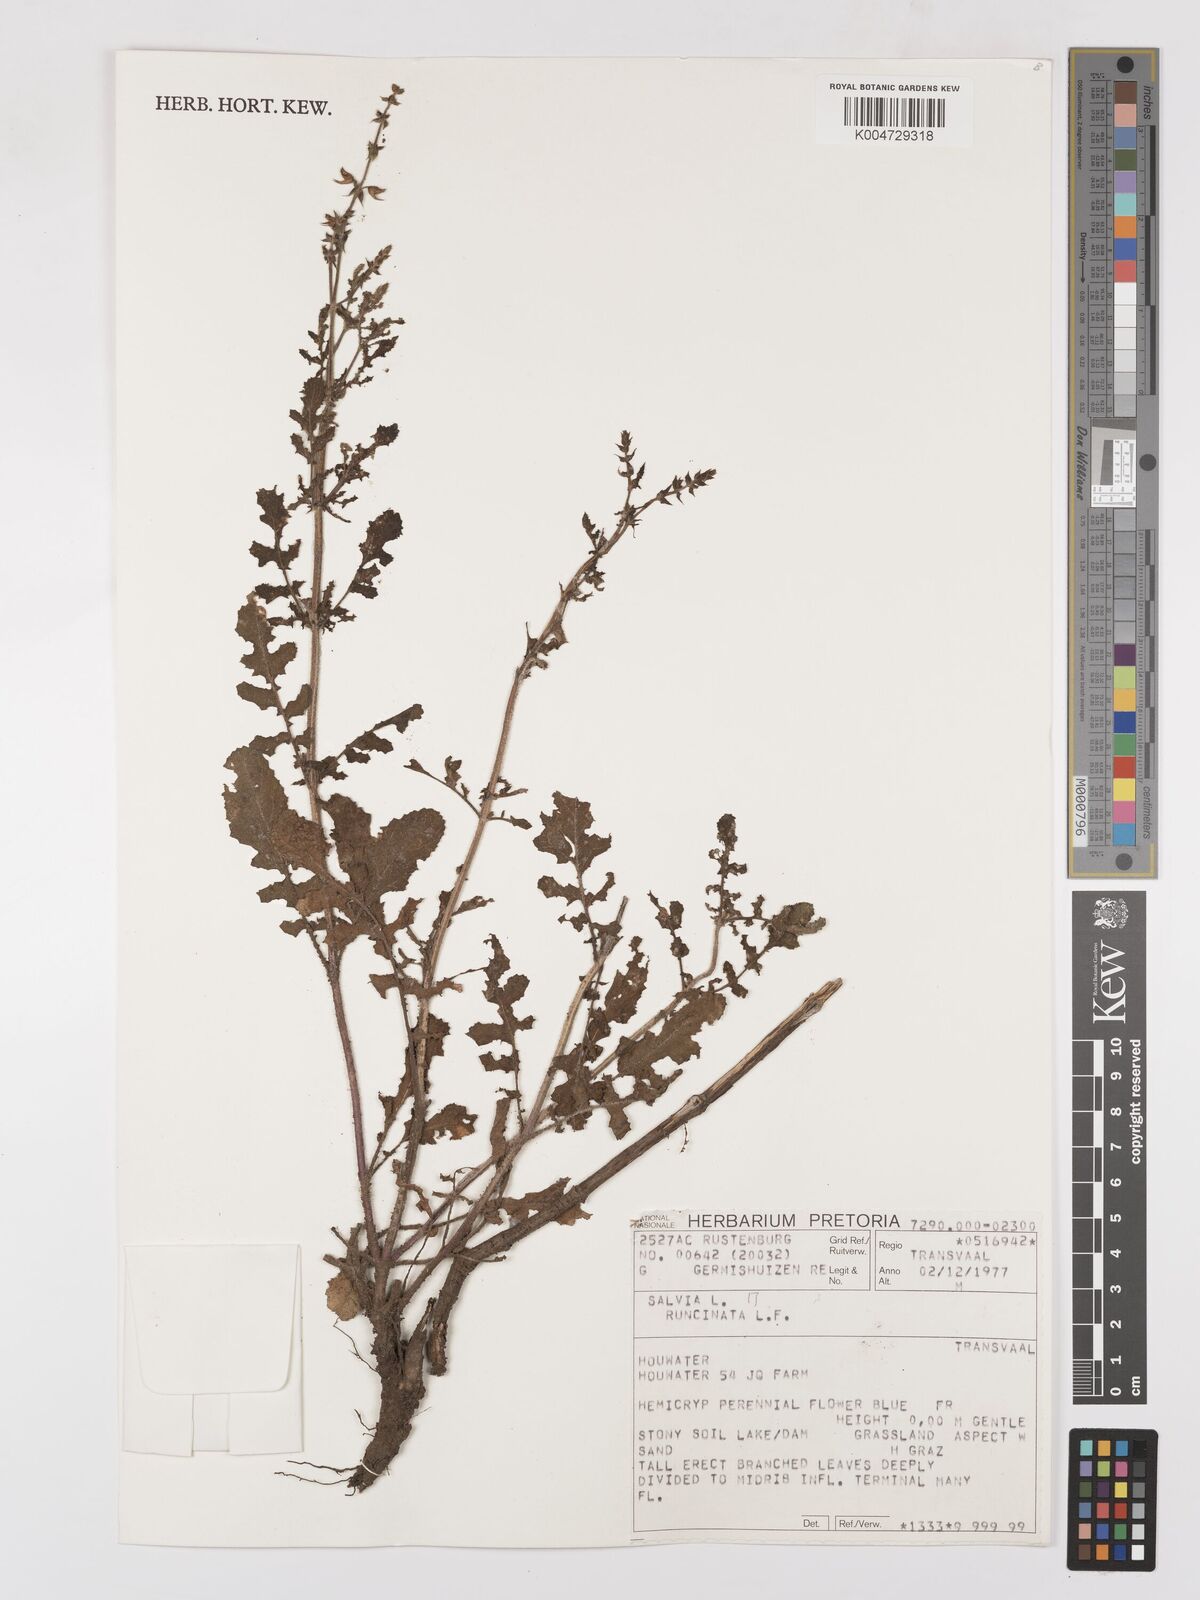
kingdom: Plantae
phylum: Tracheophyta
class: Magnoliopsida
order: Lamiales
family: Lamiaceae
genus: Salvia
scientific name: Salvia runcinata
